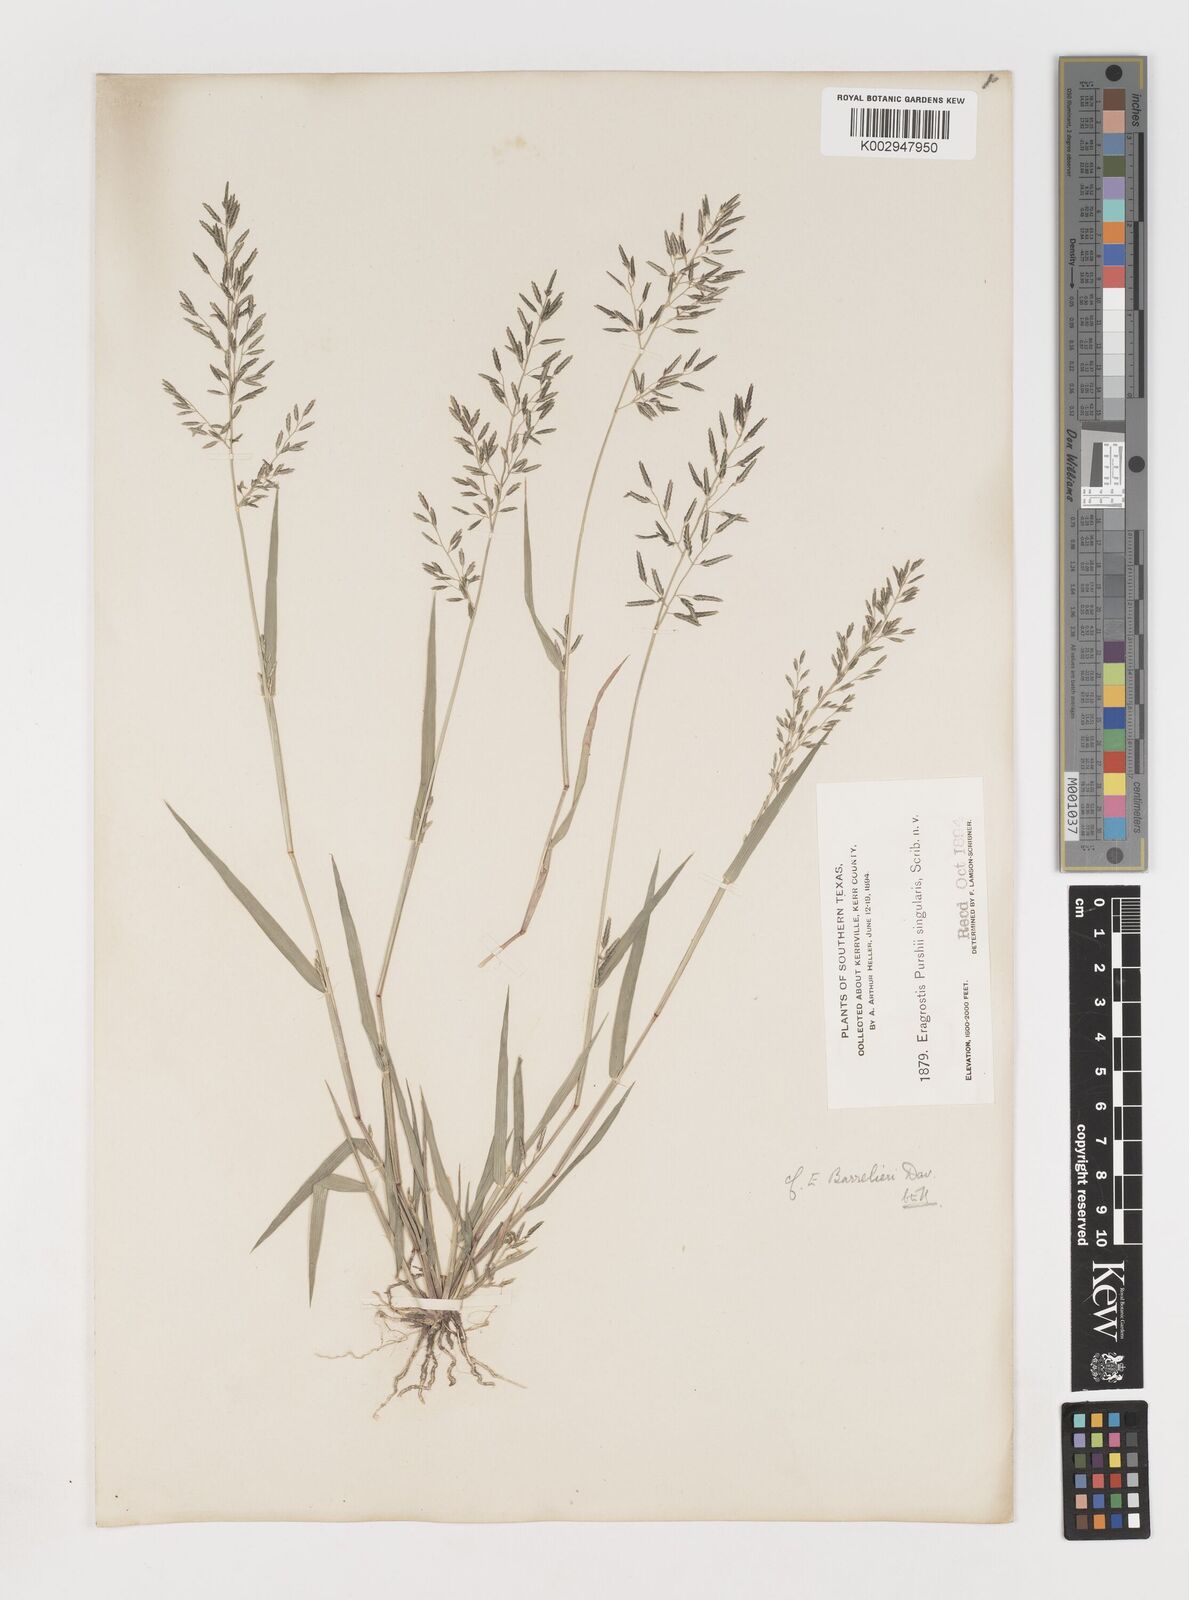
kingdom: Plantae
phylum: Tracheophyta
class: Liliopsida
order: Poales
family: Poaceae
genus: Eragrostis
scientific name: Eragrostis barrelieri
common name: Mediterranean lovegrass
